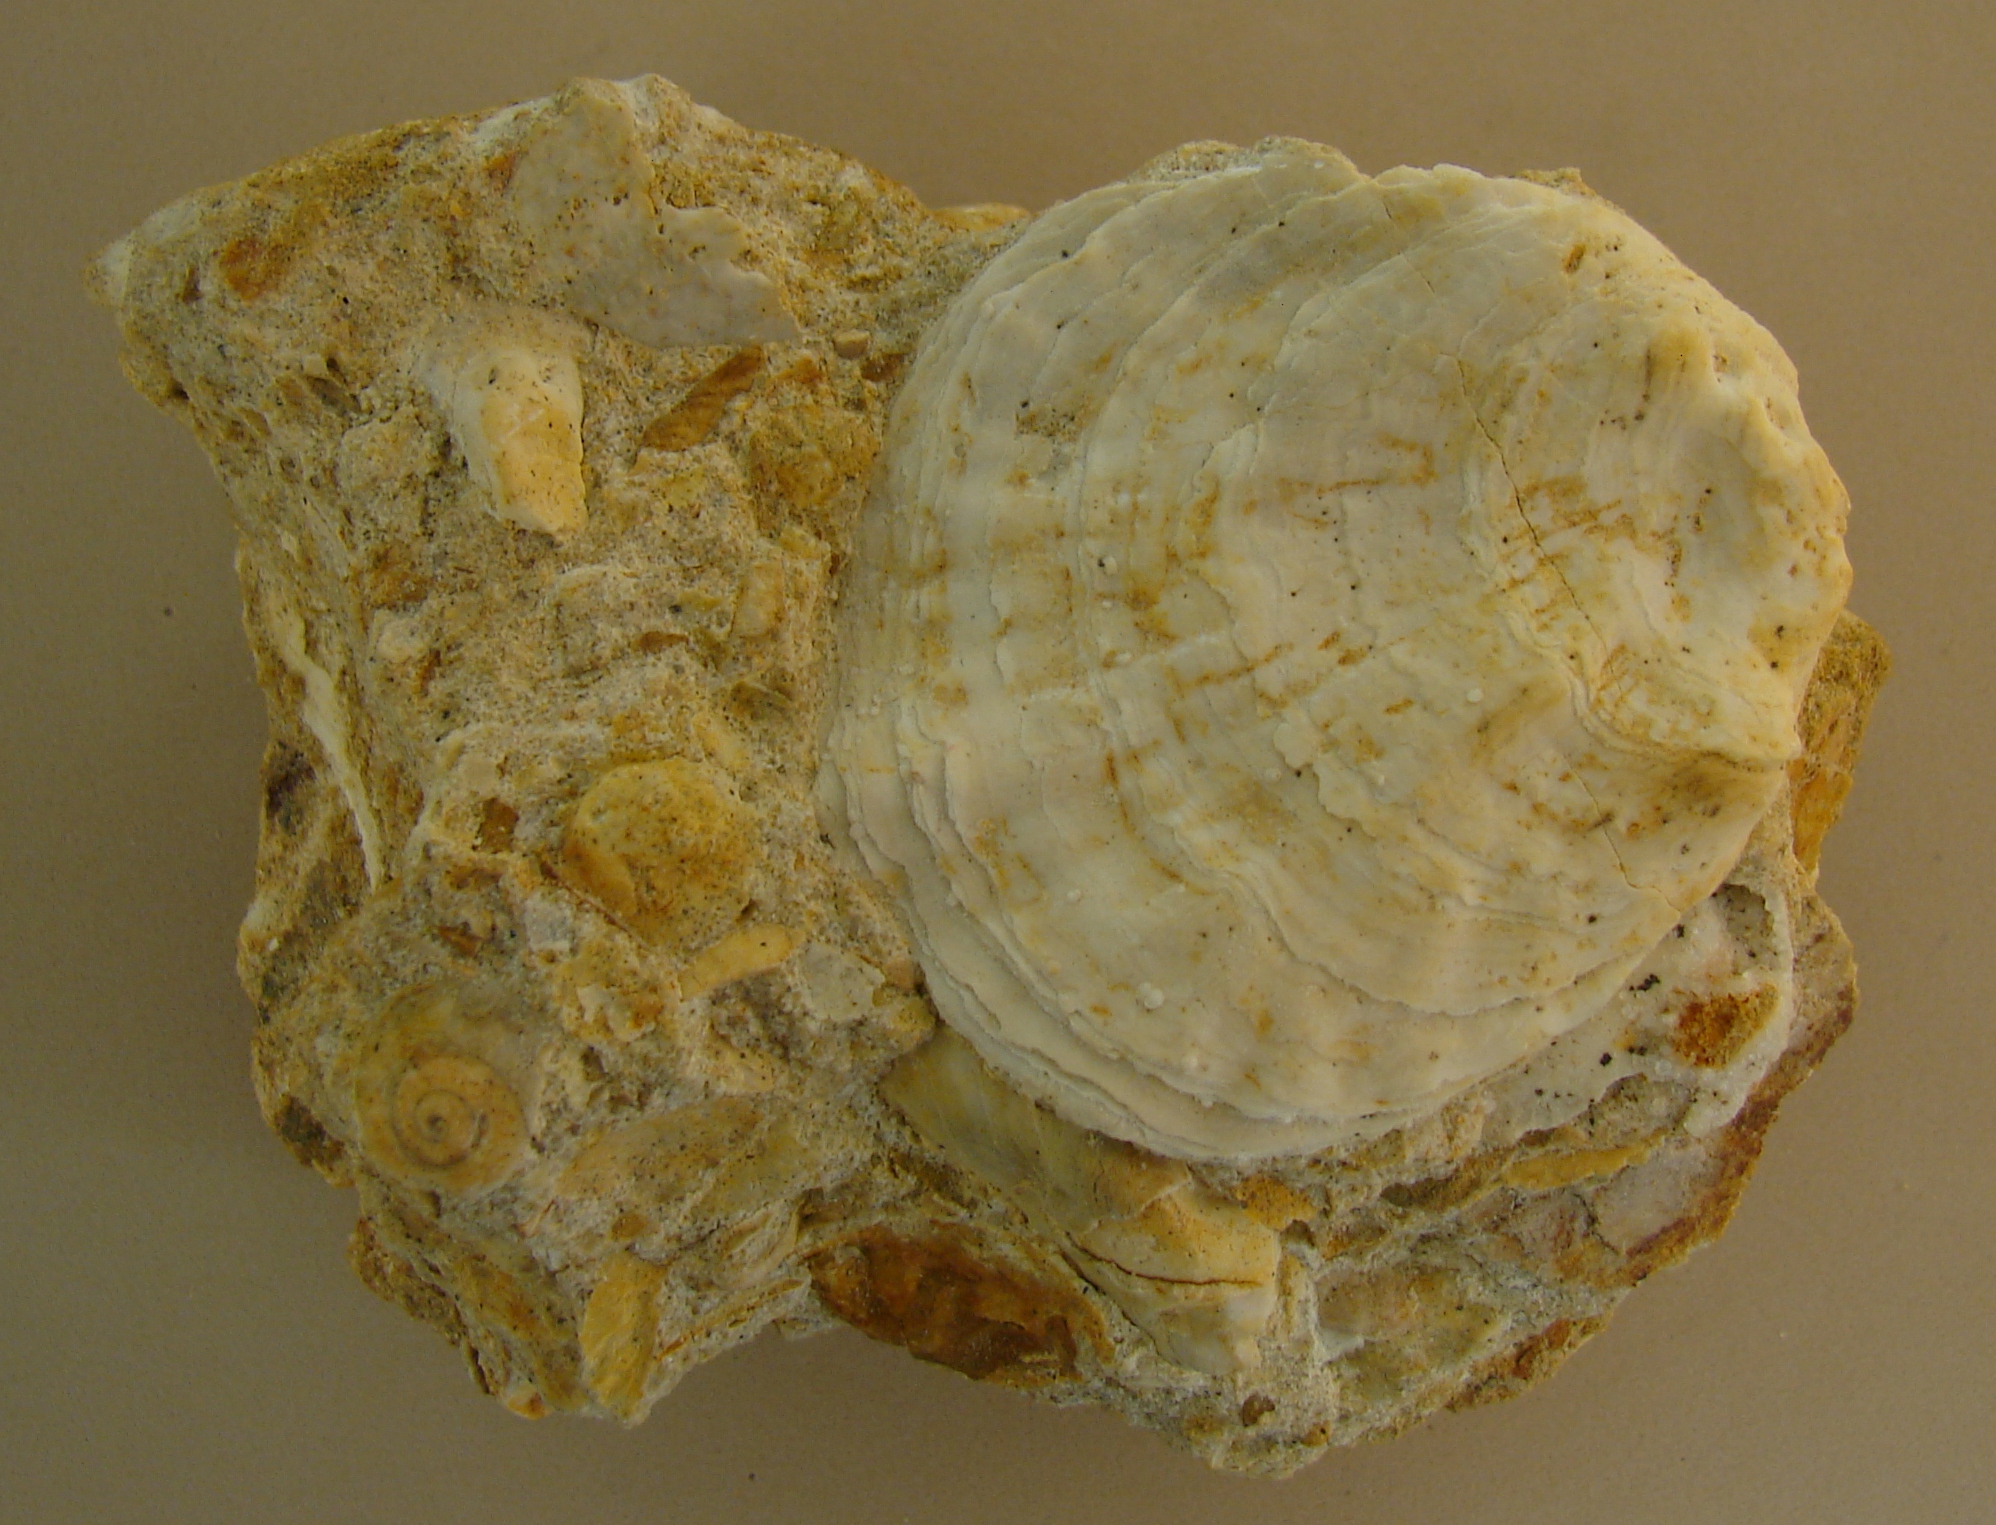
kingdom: Animalia
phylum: Mollusca
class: Bivalvia
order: Pectinida
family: Plicatulidae
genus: Plicatula
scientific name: Plicatula
